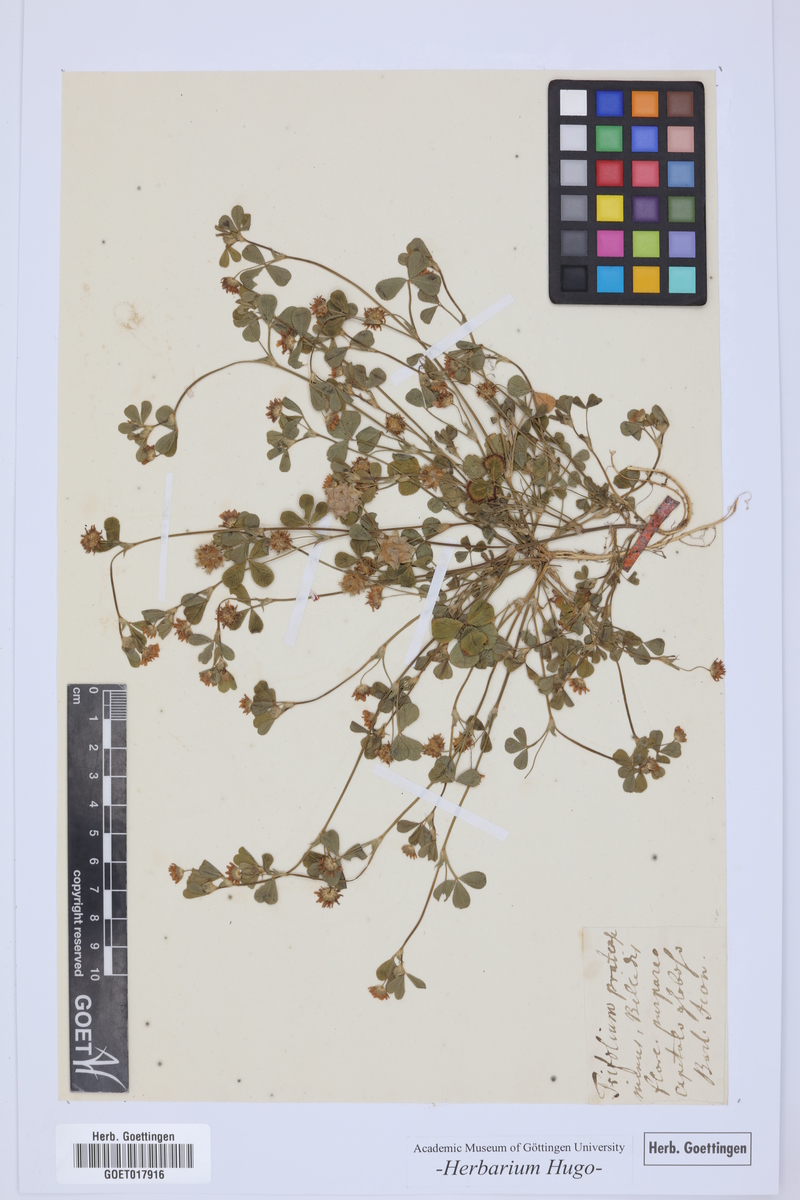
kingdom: Plantae
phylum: Tracheophyta
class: Magnoliopsida
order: Fabales
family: Fabaceae
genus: Trifolium
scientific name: Trifolium
